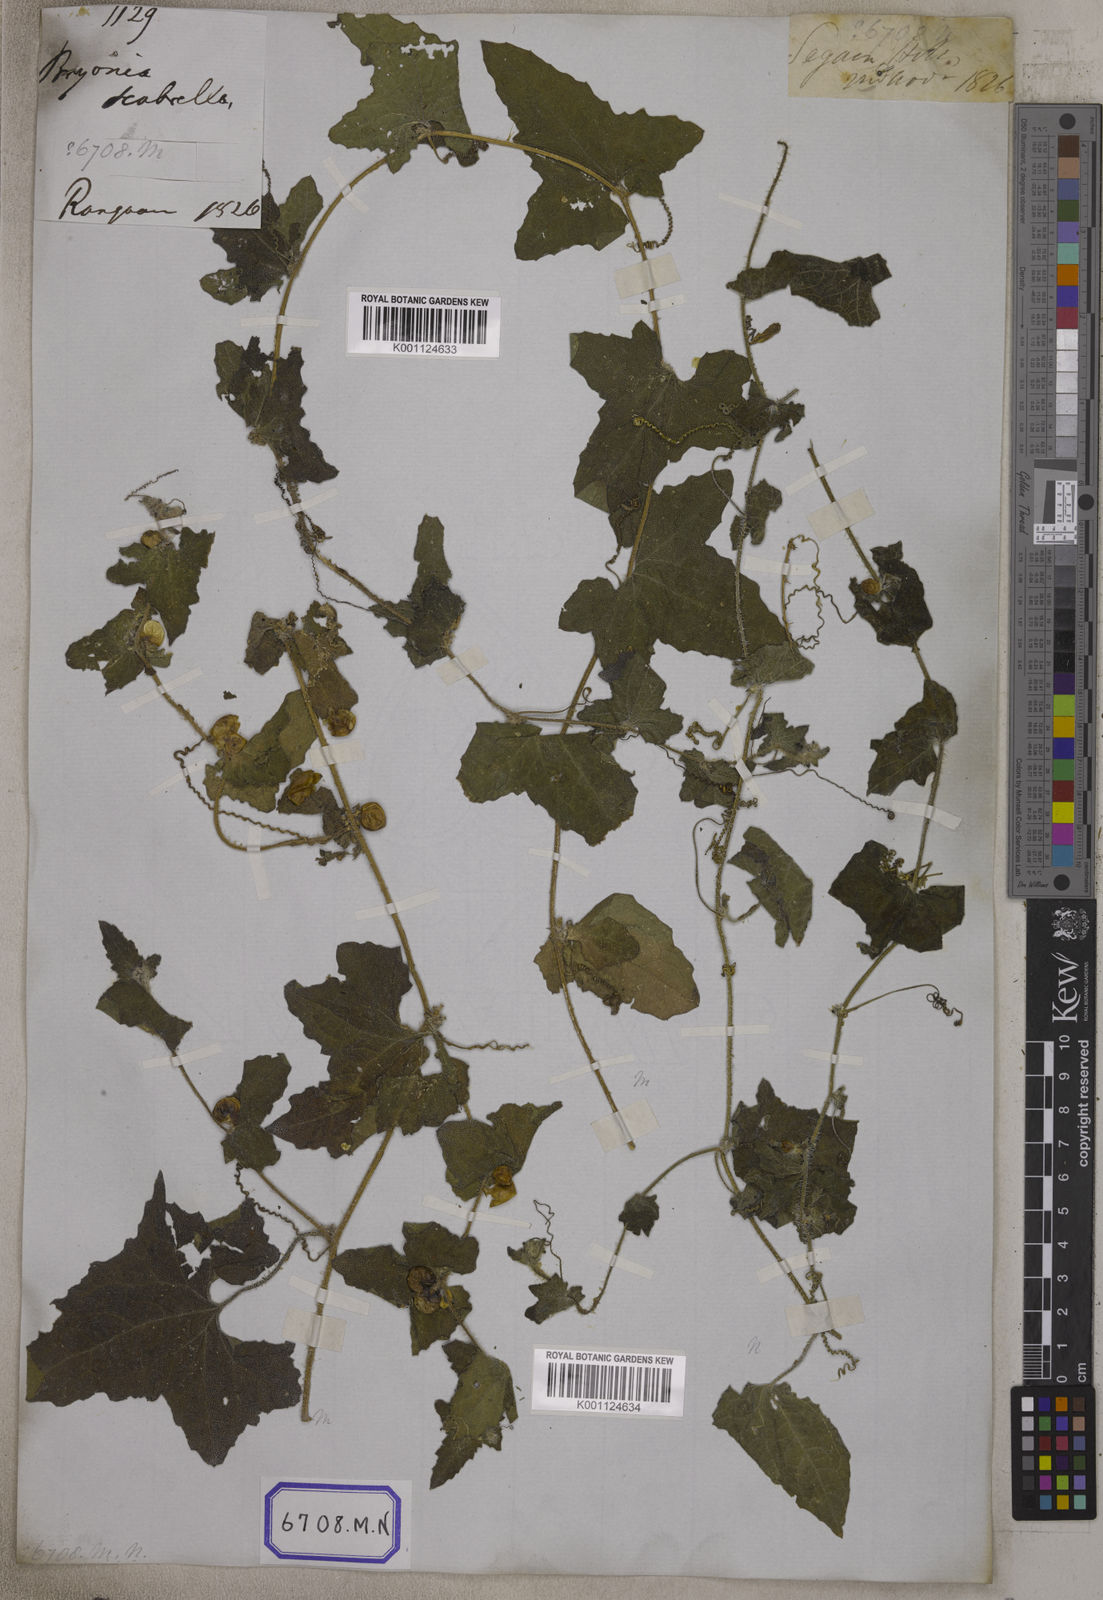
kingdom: Plantae
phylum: Tracheophyta
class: Magnoliopsida
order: Cucurbitales
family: Cucurbitaceae
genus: Bryonia
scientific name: Bryonia
